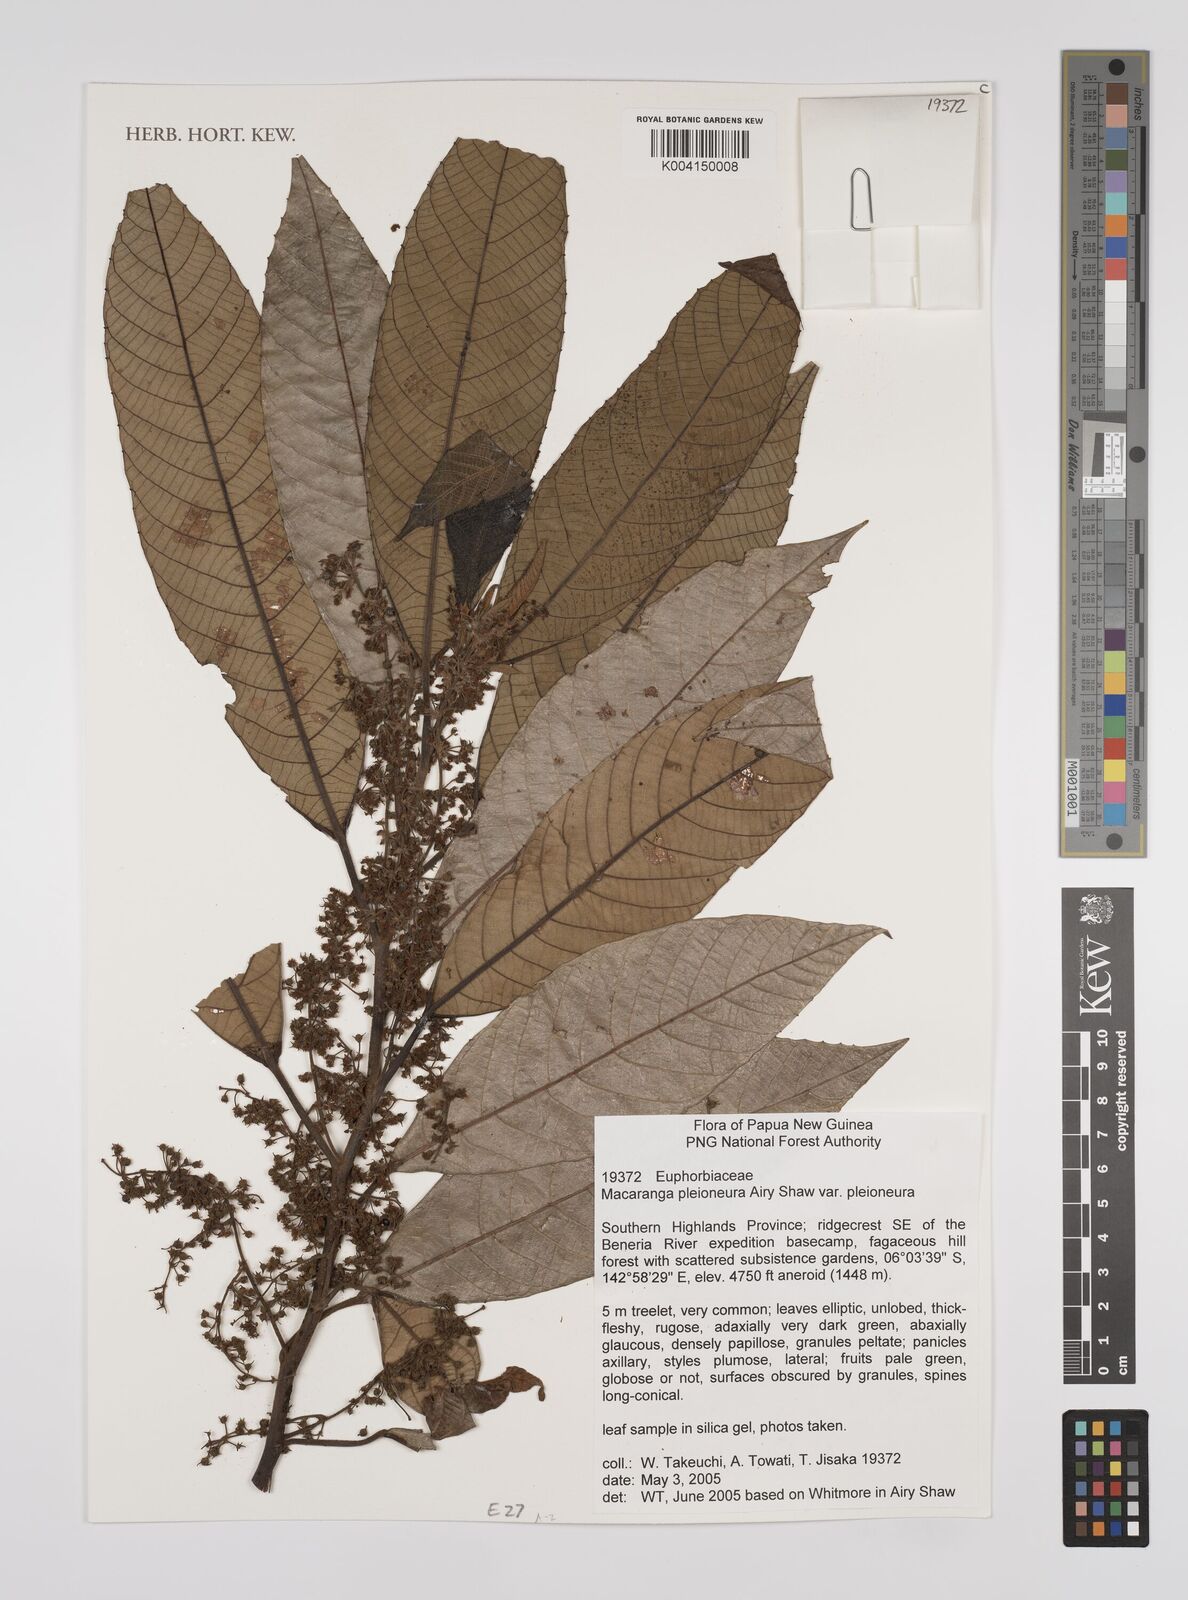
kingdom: Plantae
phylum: Tracheophyta
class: Magnoliopsida
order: Malpighiales
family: Euphorbiaceae
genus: Macaranga
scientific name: Macaranga pleioneura
